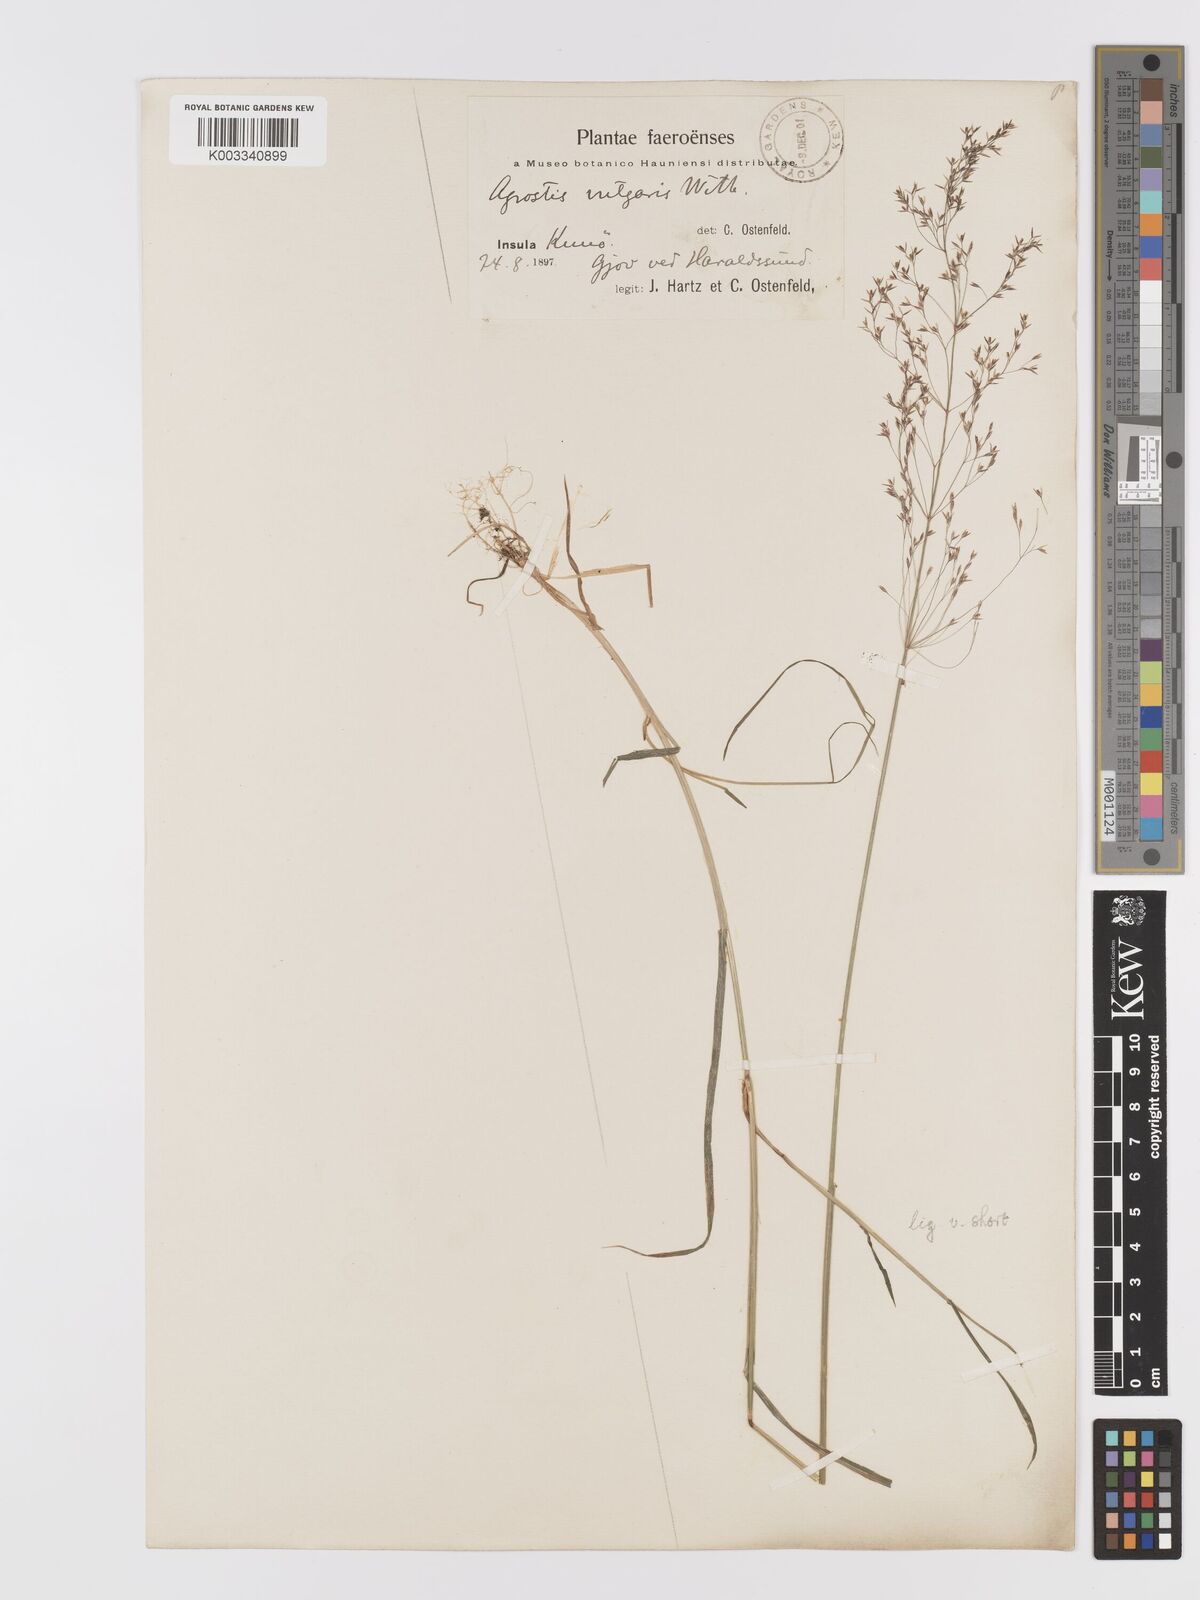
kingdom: Plantae
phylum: Tracheophyta
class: Liliopsida
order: Poales
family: Poaceae
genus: Agrostis
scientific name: Agrostis capillaris
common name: Colonial bentgrass
